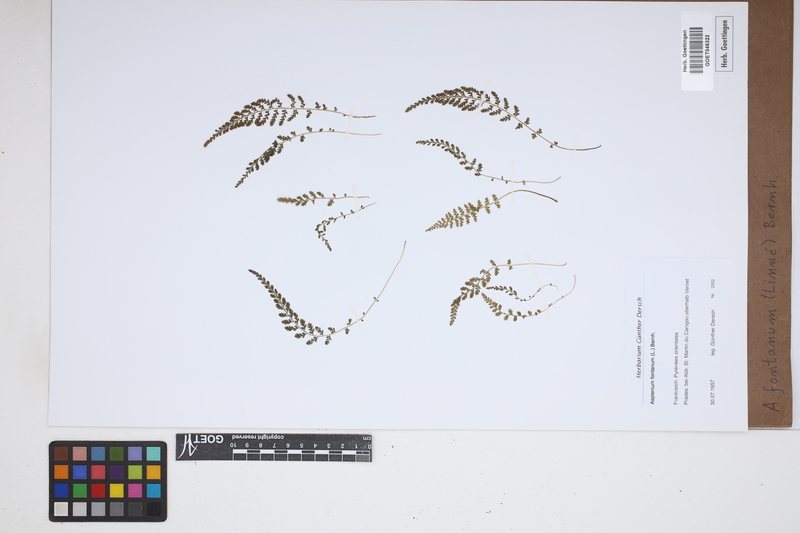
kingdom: Plantae
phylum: Tracheophyta
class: Polypodiopsida
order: Polypodiales
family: Aspleniaceae
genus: Asplenium
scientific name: Asplenium fontanum
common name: Fountain spleenwort
